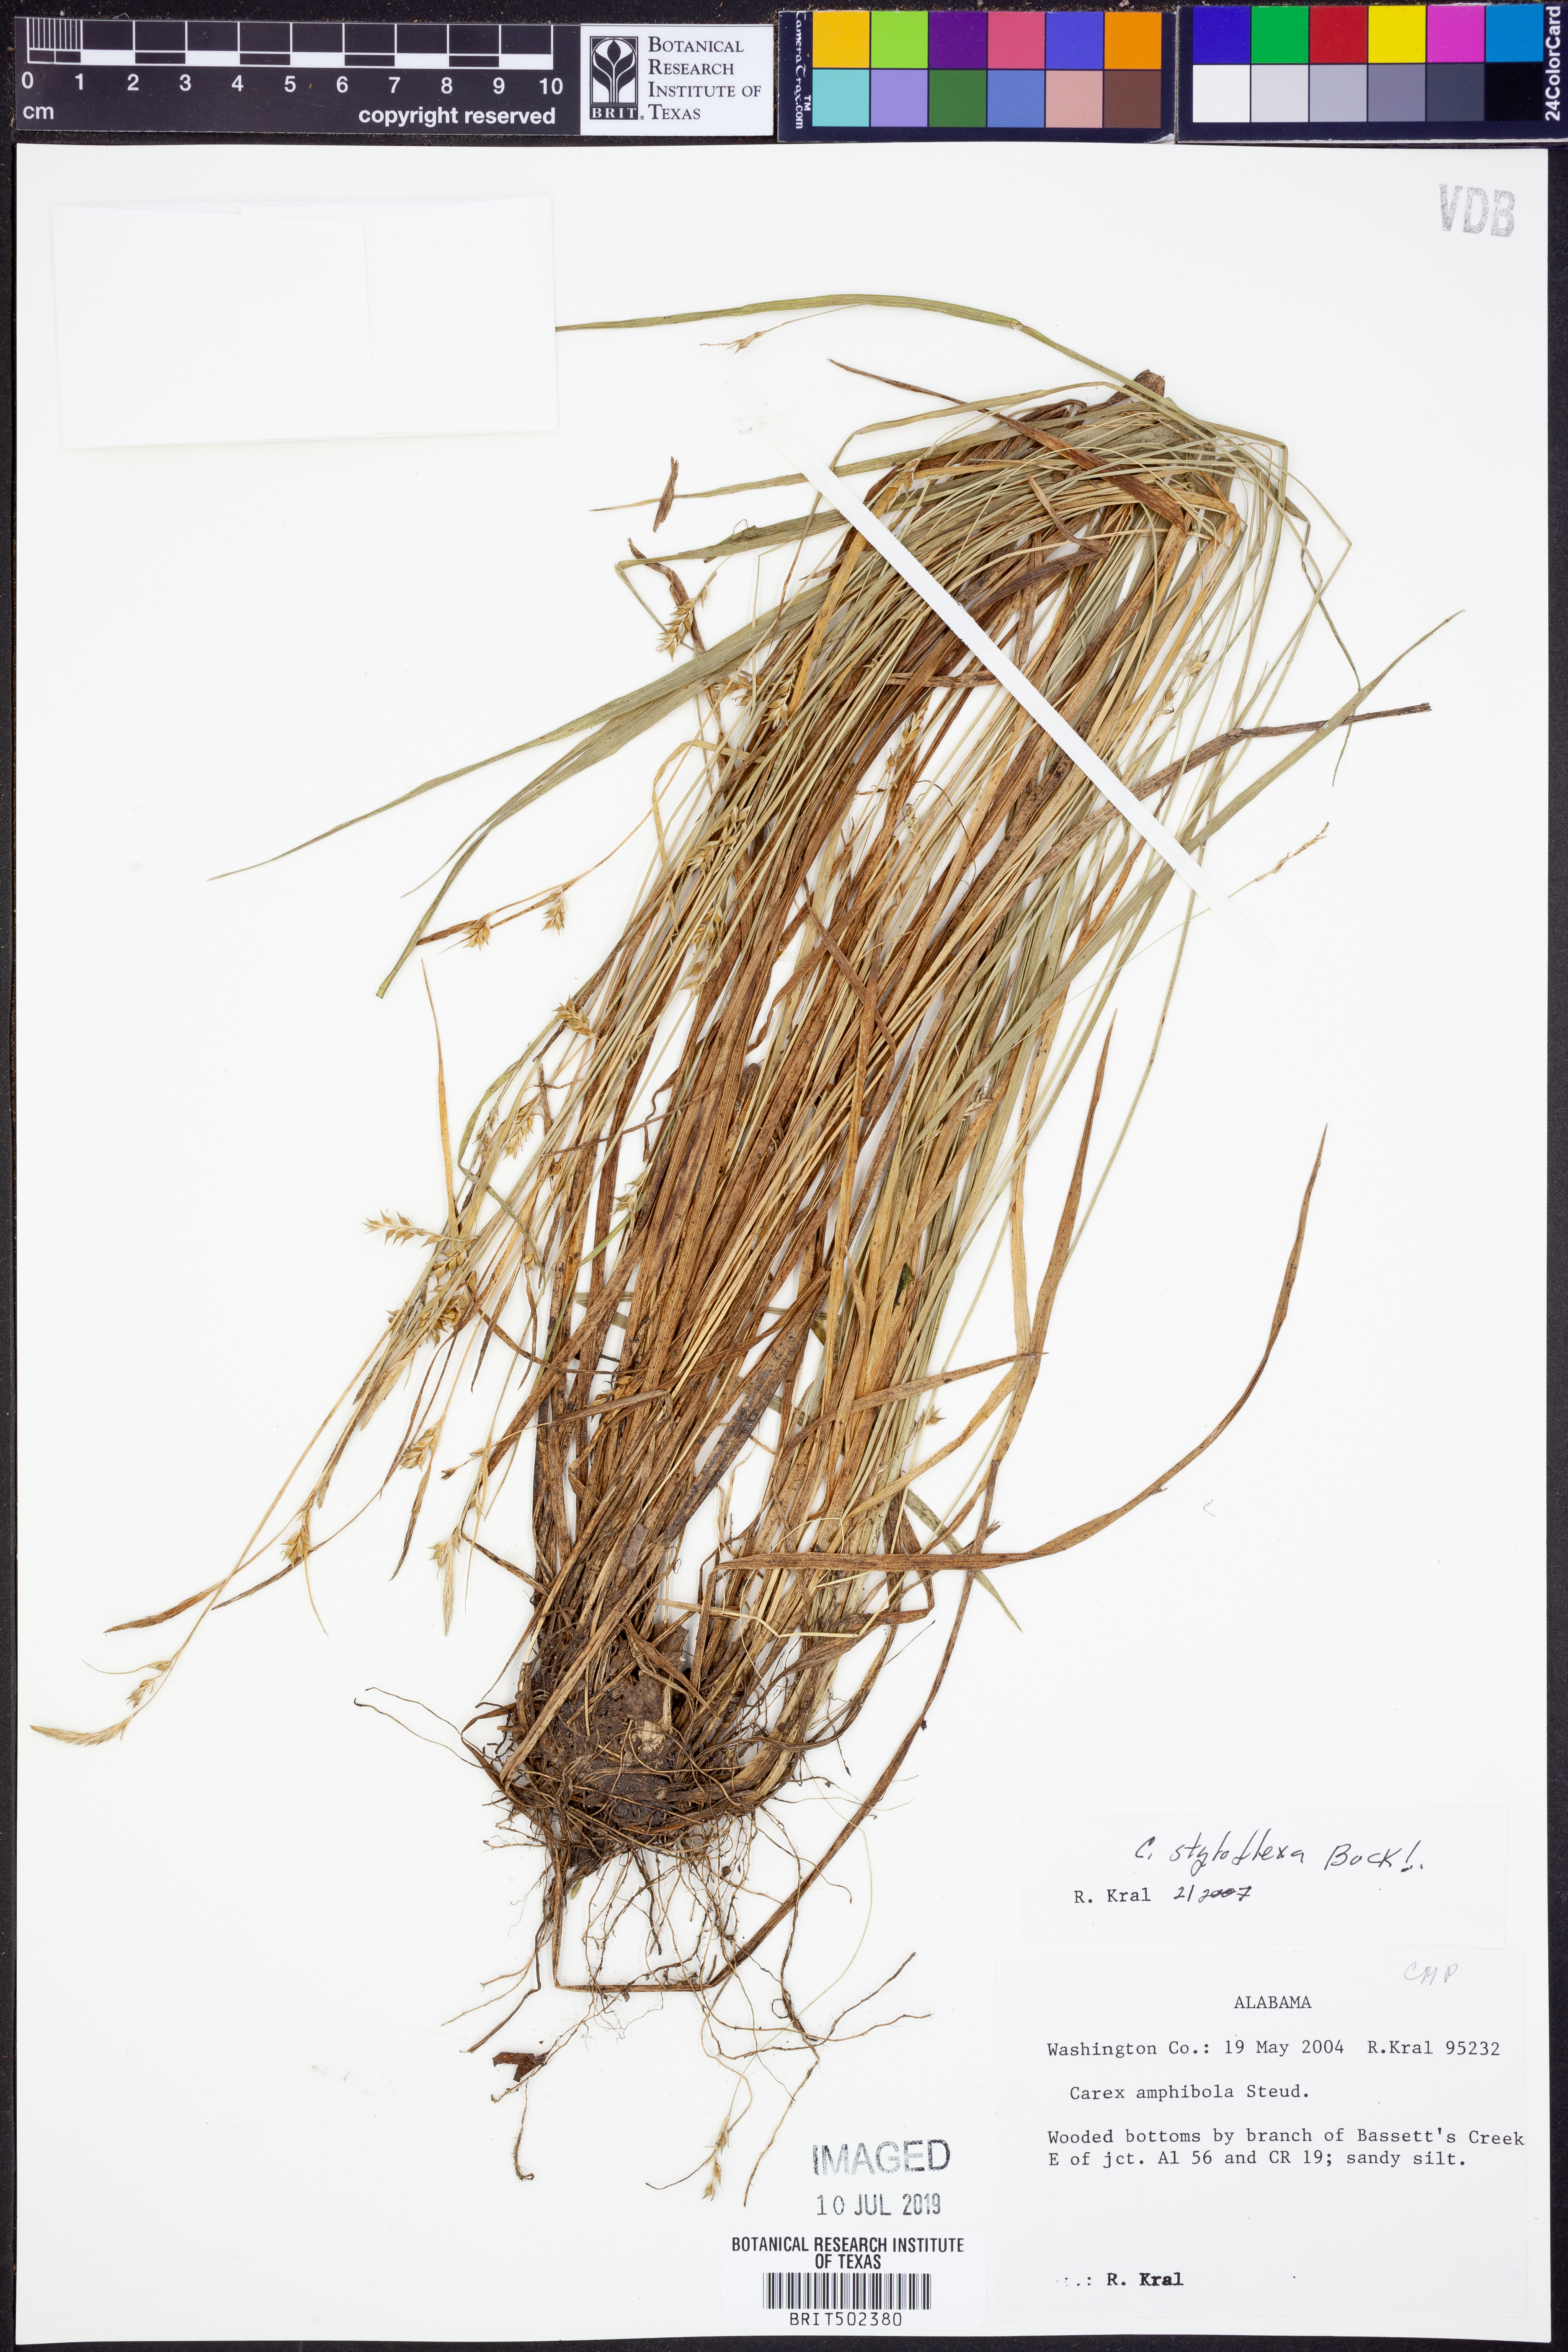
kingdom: Plantae
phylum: Tracheophyta
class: Liliopsida
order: Poales
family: Cyperaceae
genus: Carex
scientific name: Carex styloflexa
